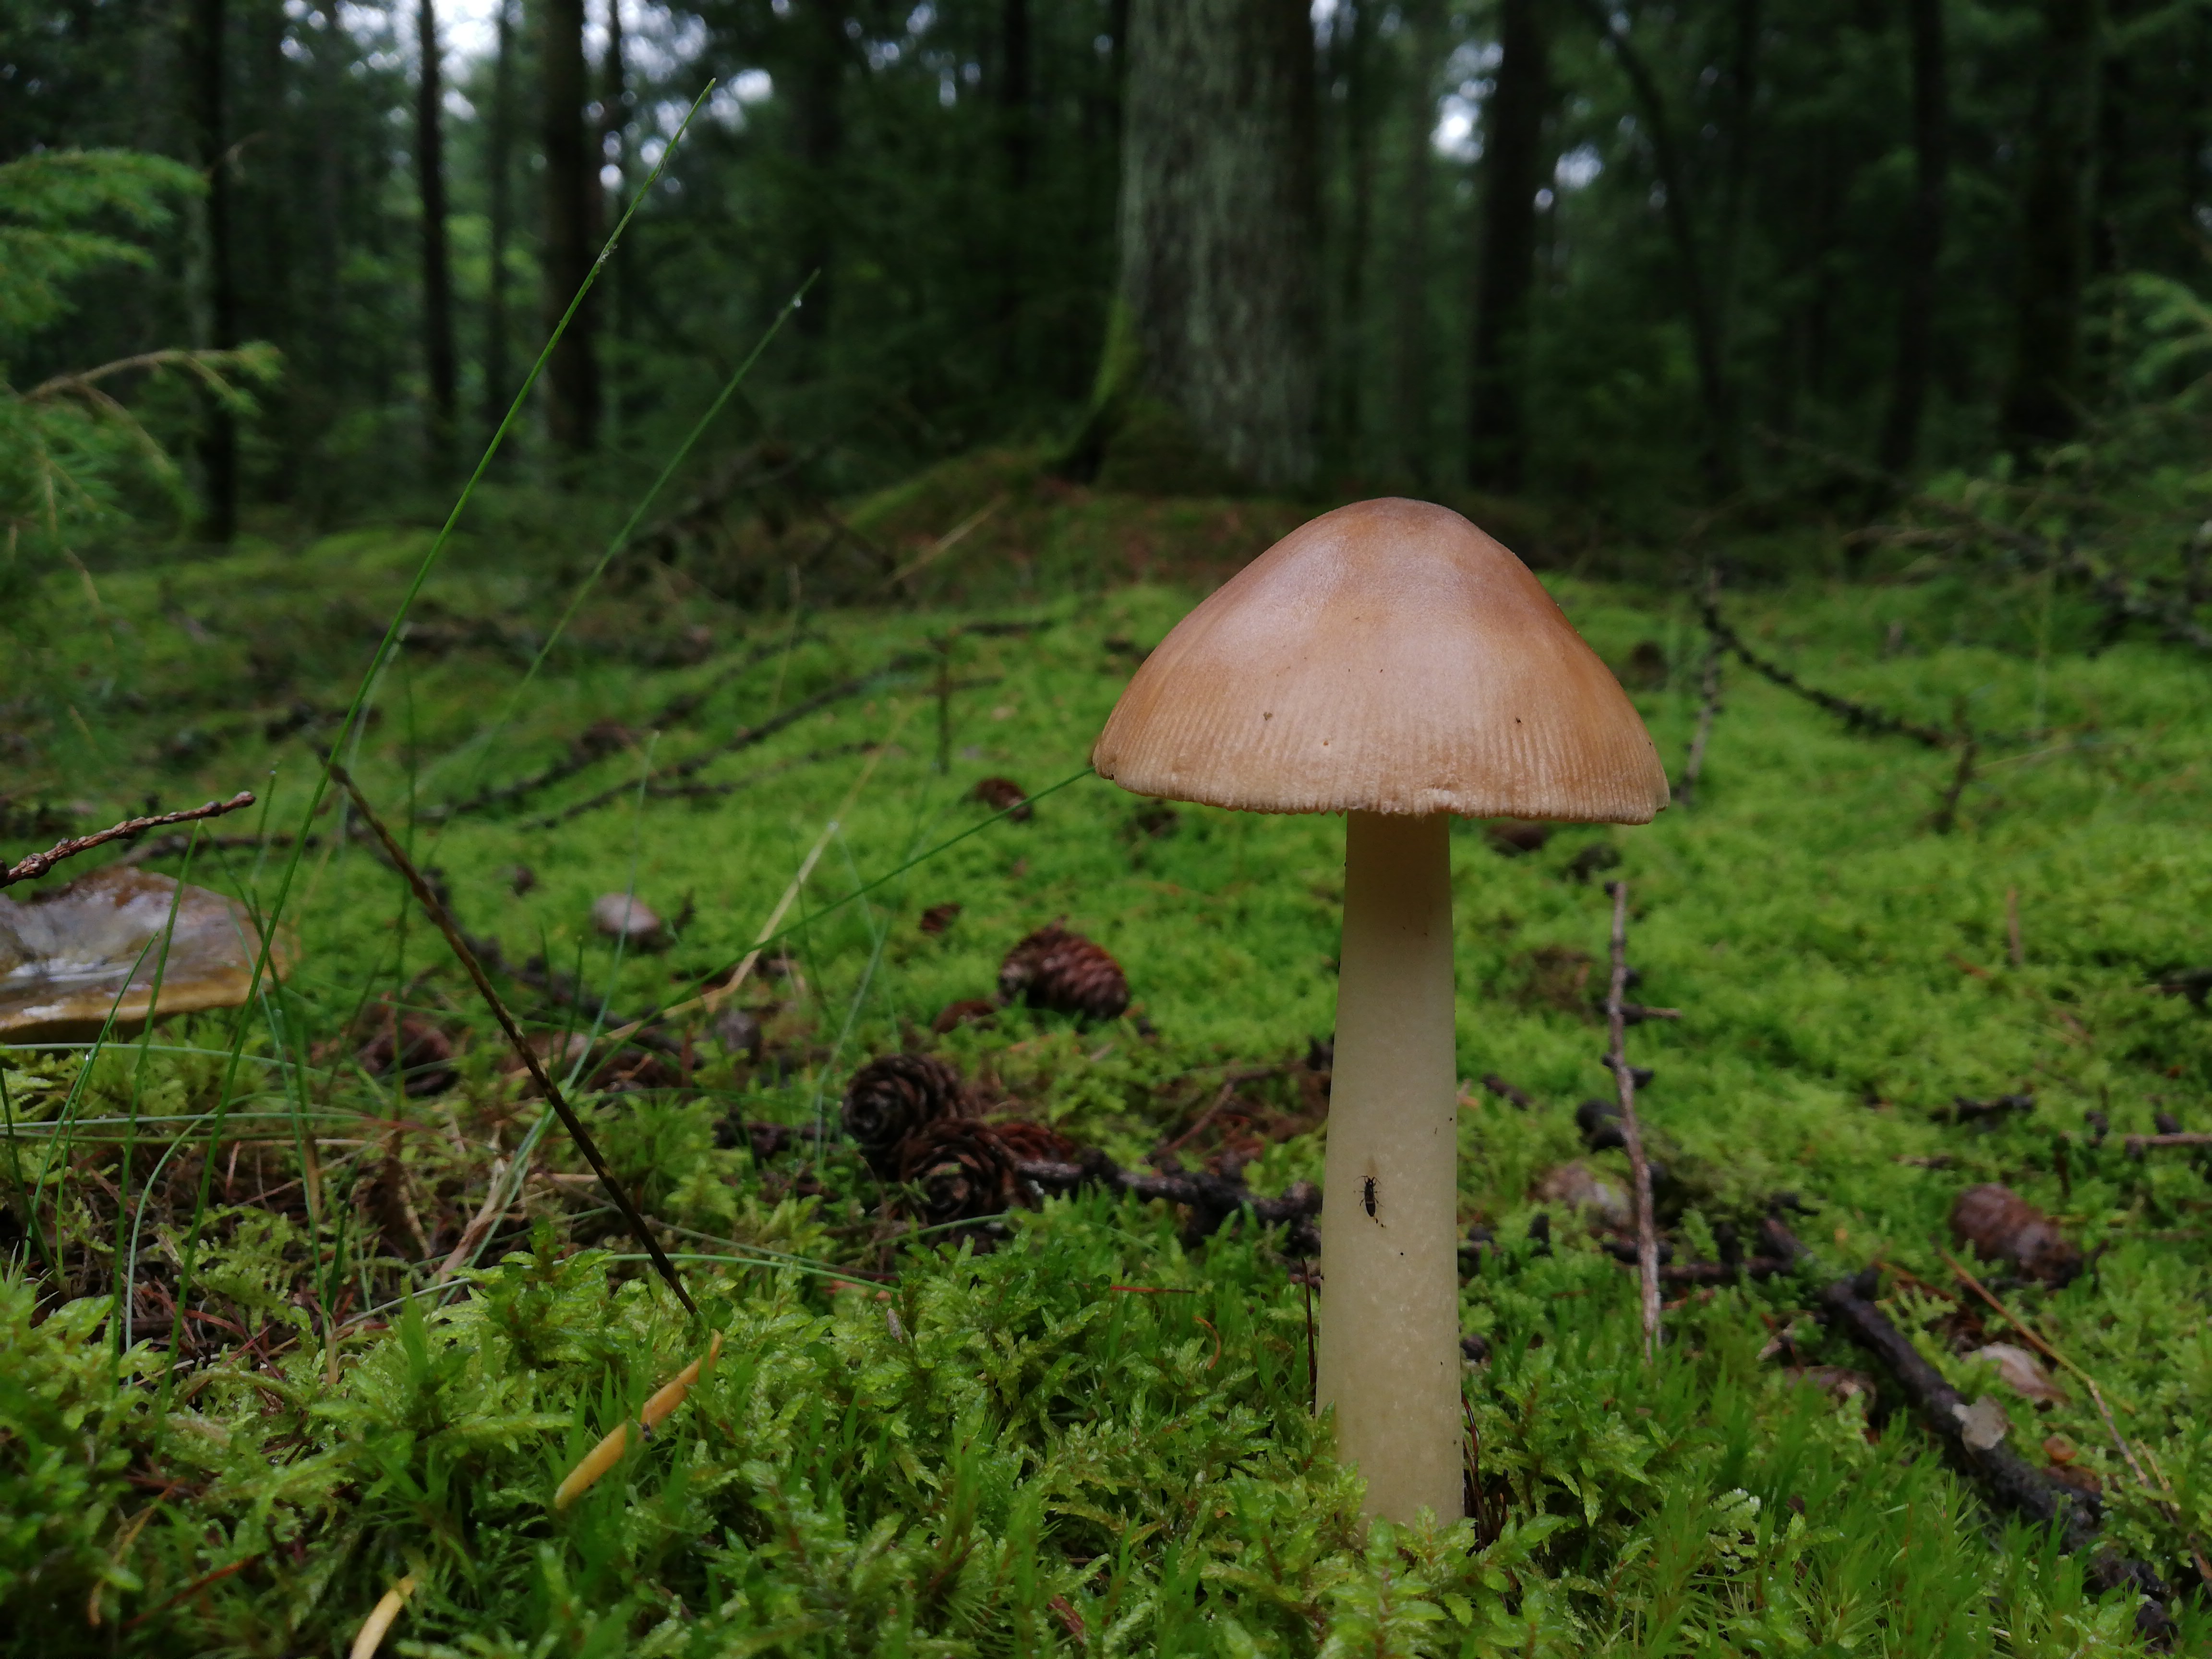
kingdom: Fungi
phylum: Basidiomycota
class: Agaricomycetes
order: Agaricales
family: Amanitaceae
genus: Amanita
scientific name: Amanita fulva
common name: brun kam-fluesvamp
